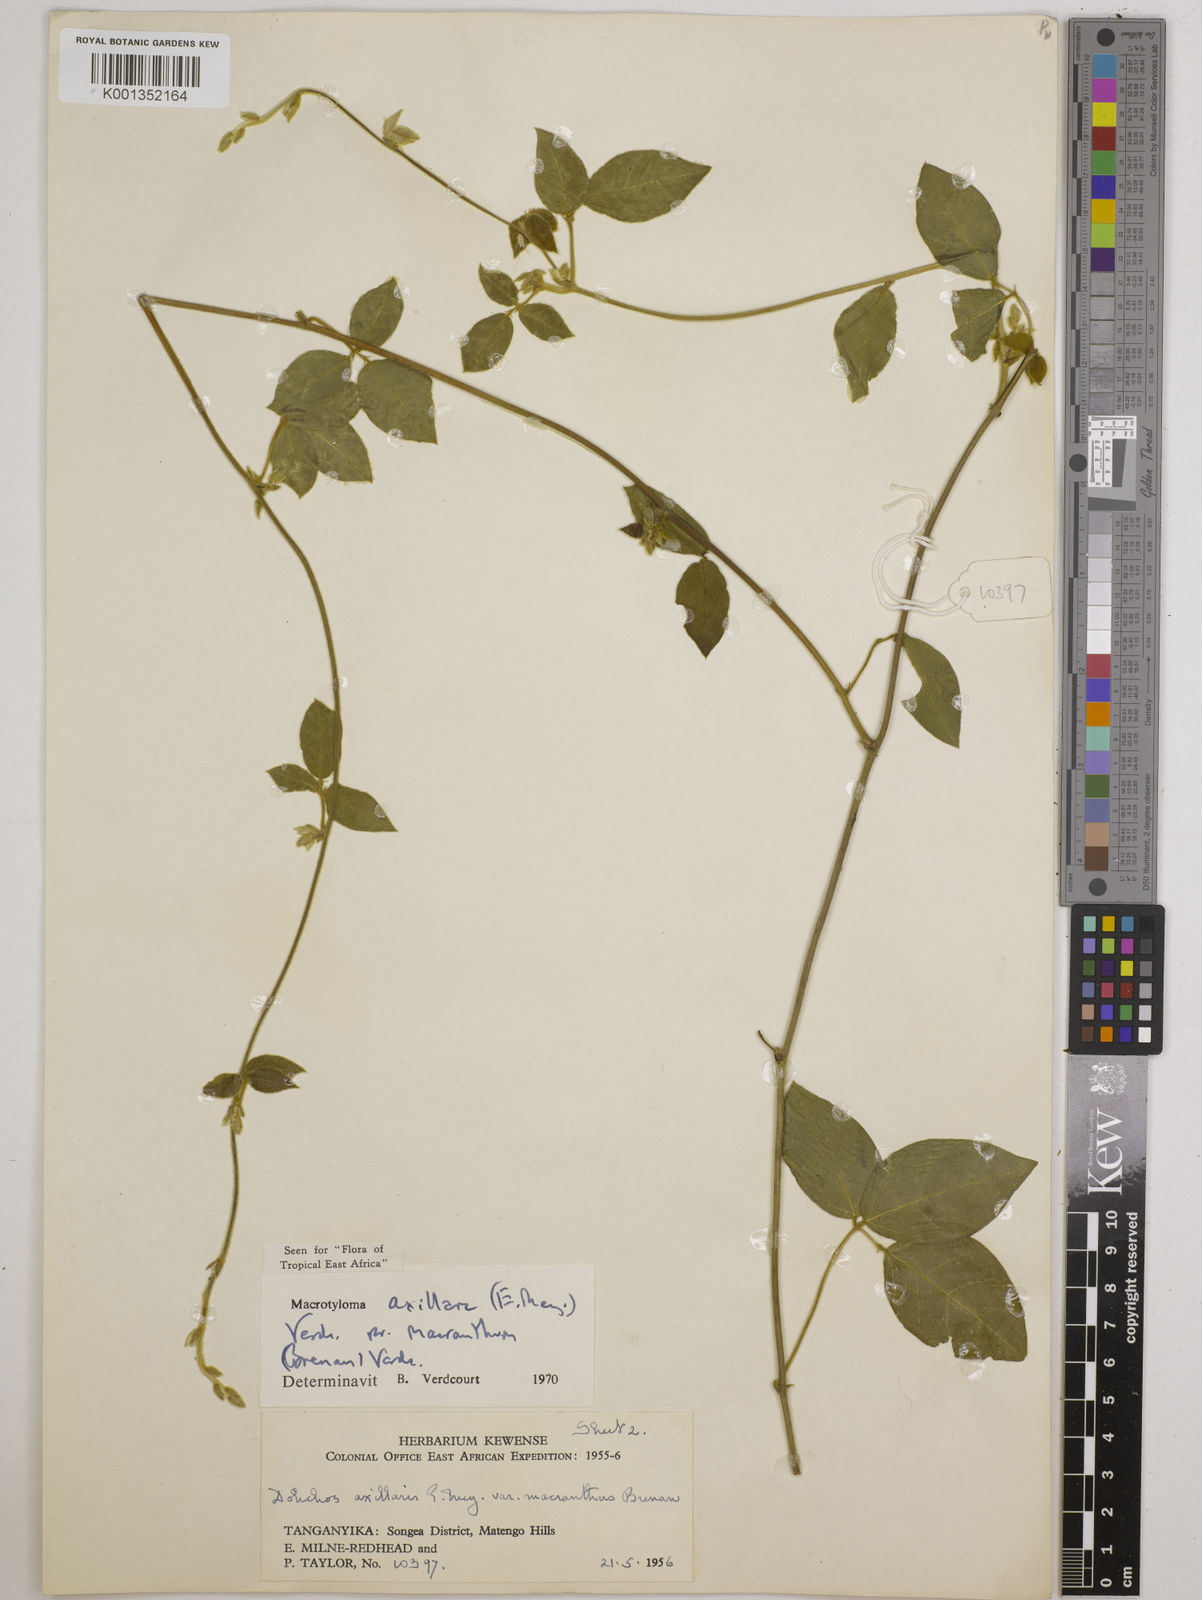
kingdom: Plantae
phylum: Tracheophyta
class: Magnoliopsida
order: Fabales
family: Fabaceae
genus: Macrotyloma
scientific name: Macrotyloma
